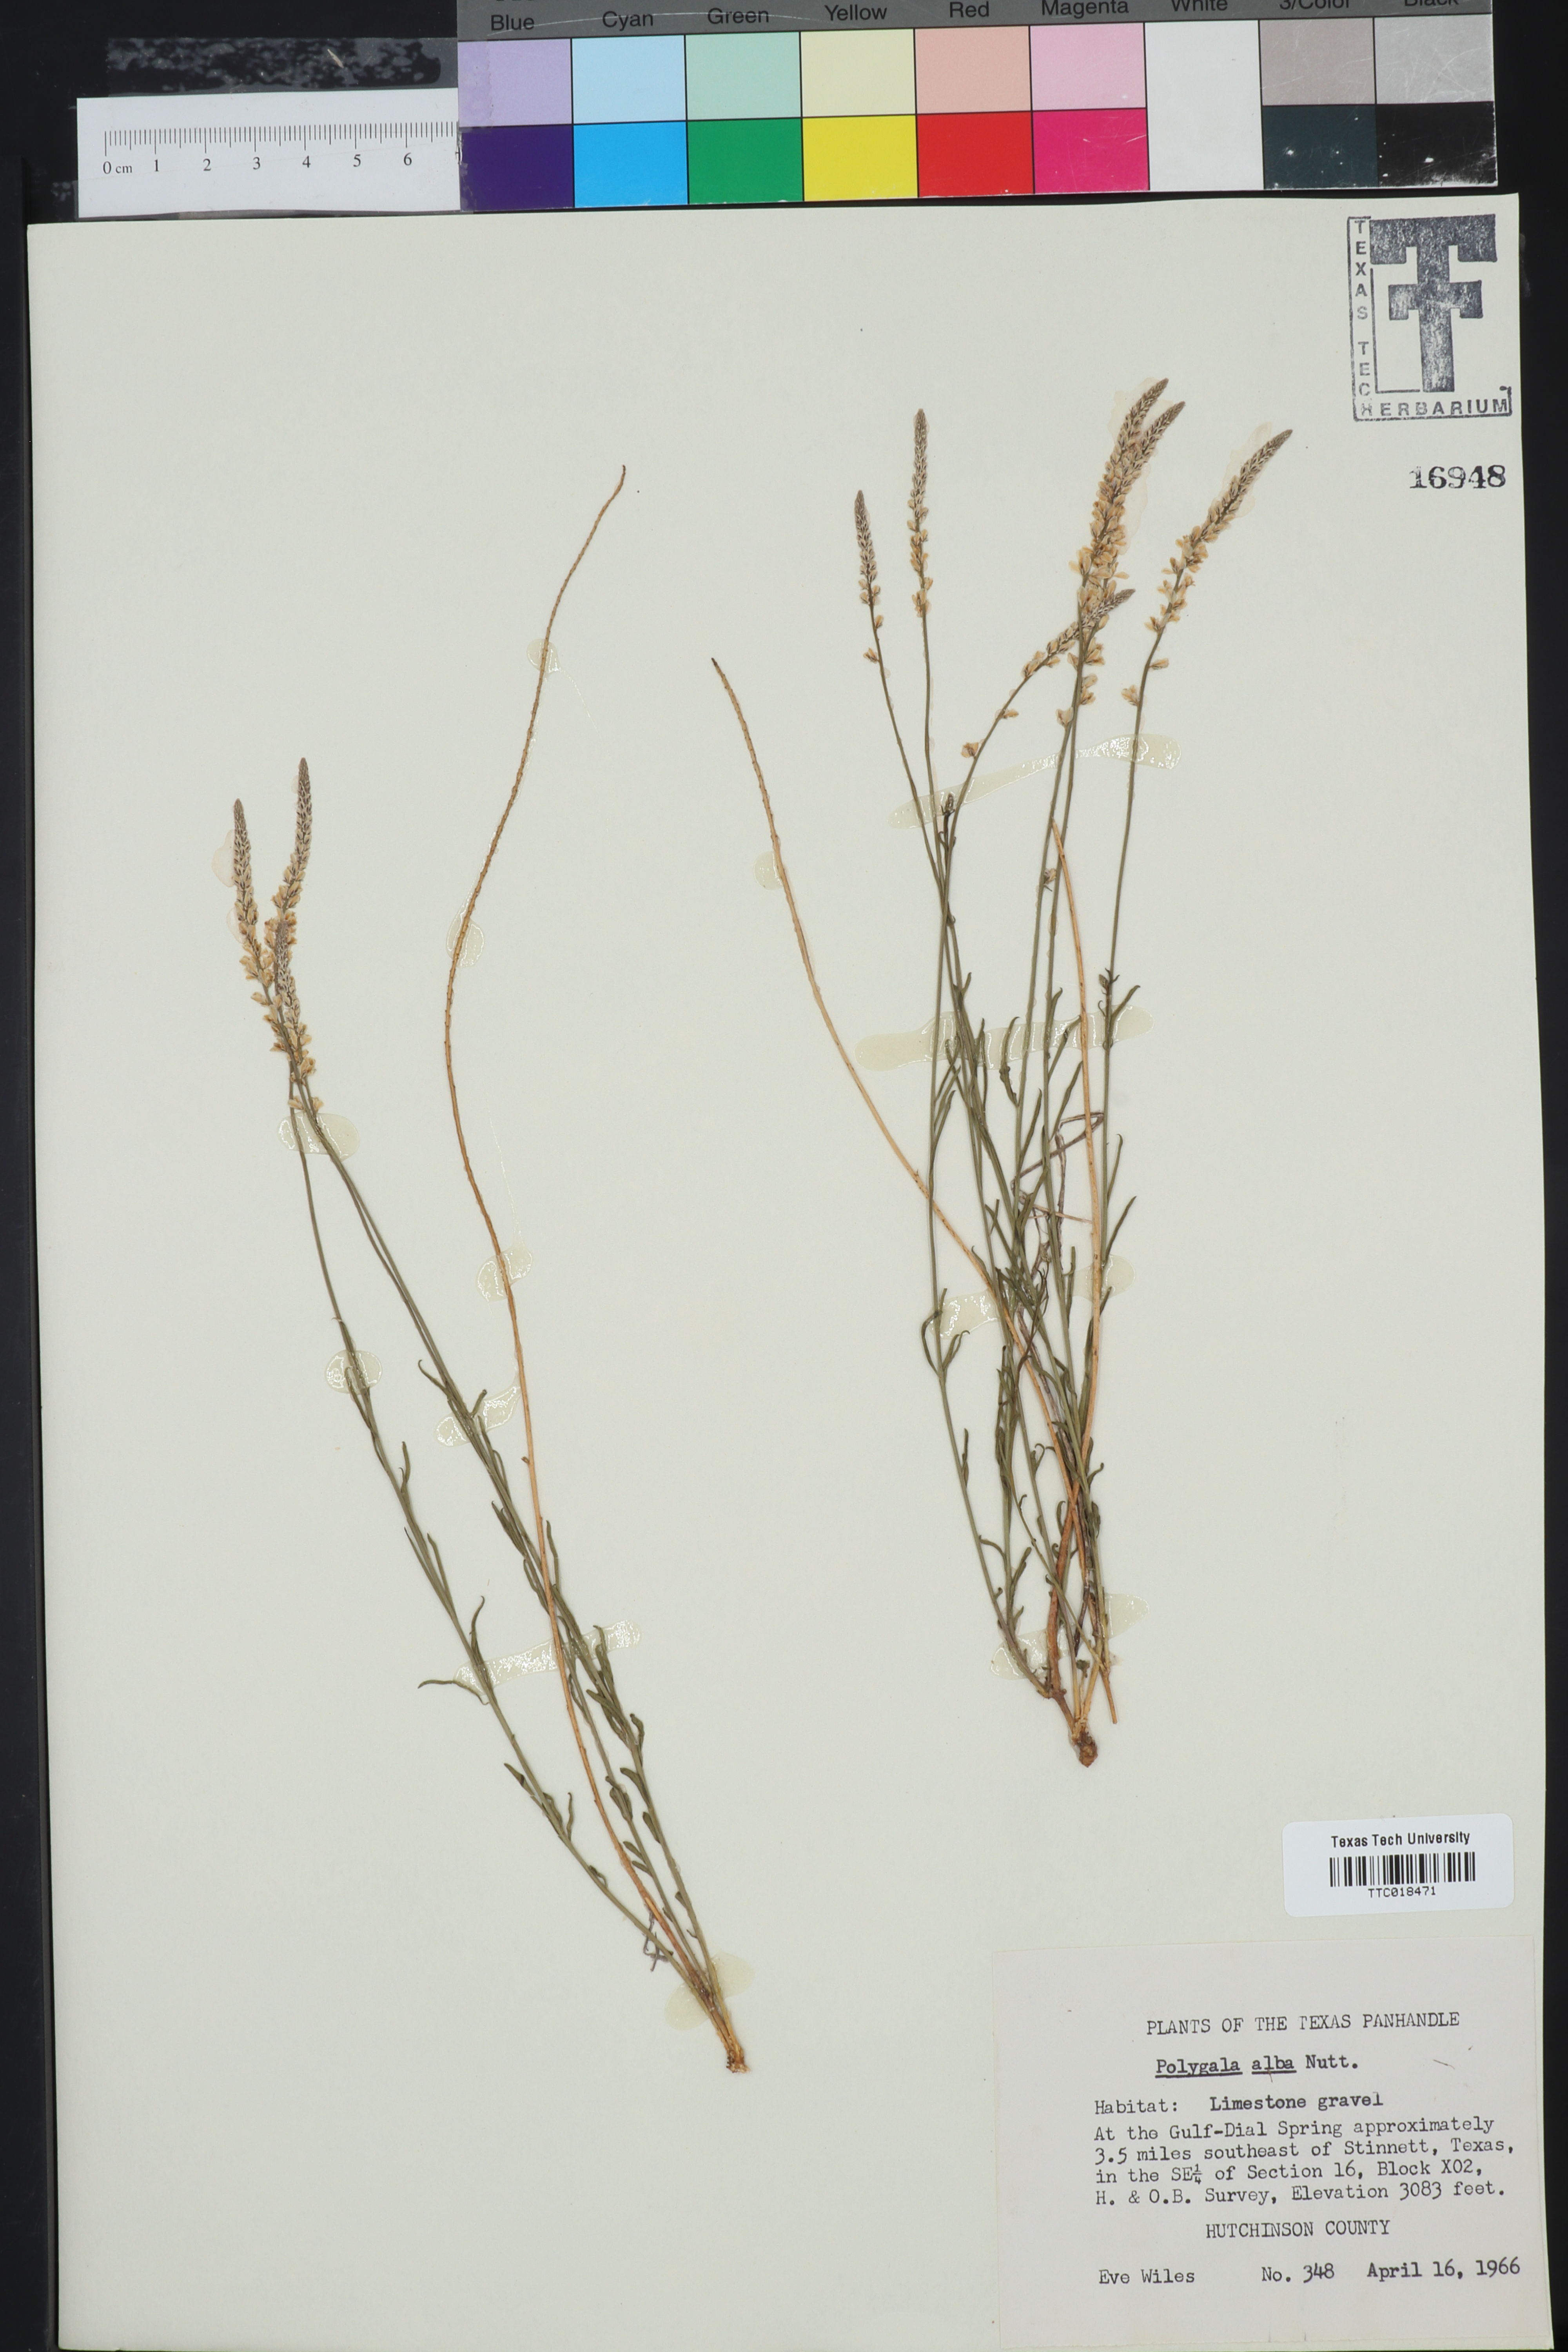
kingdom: Plantae
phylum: Tracheophyta
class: Magnoliopsida
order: Fabales
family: Polygalaceae
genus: Polygala
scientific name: Polygala alba
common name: White milkwort
